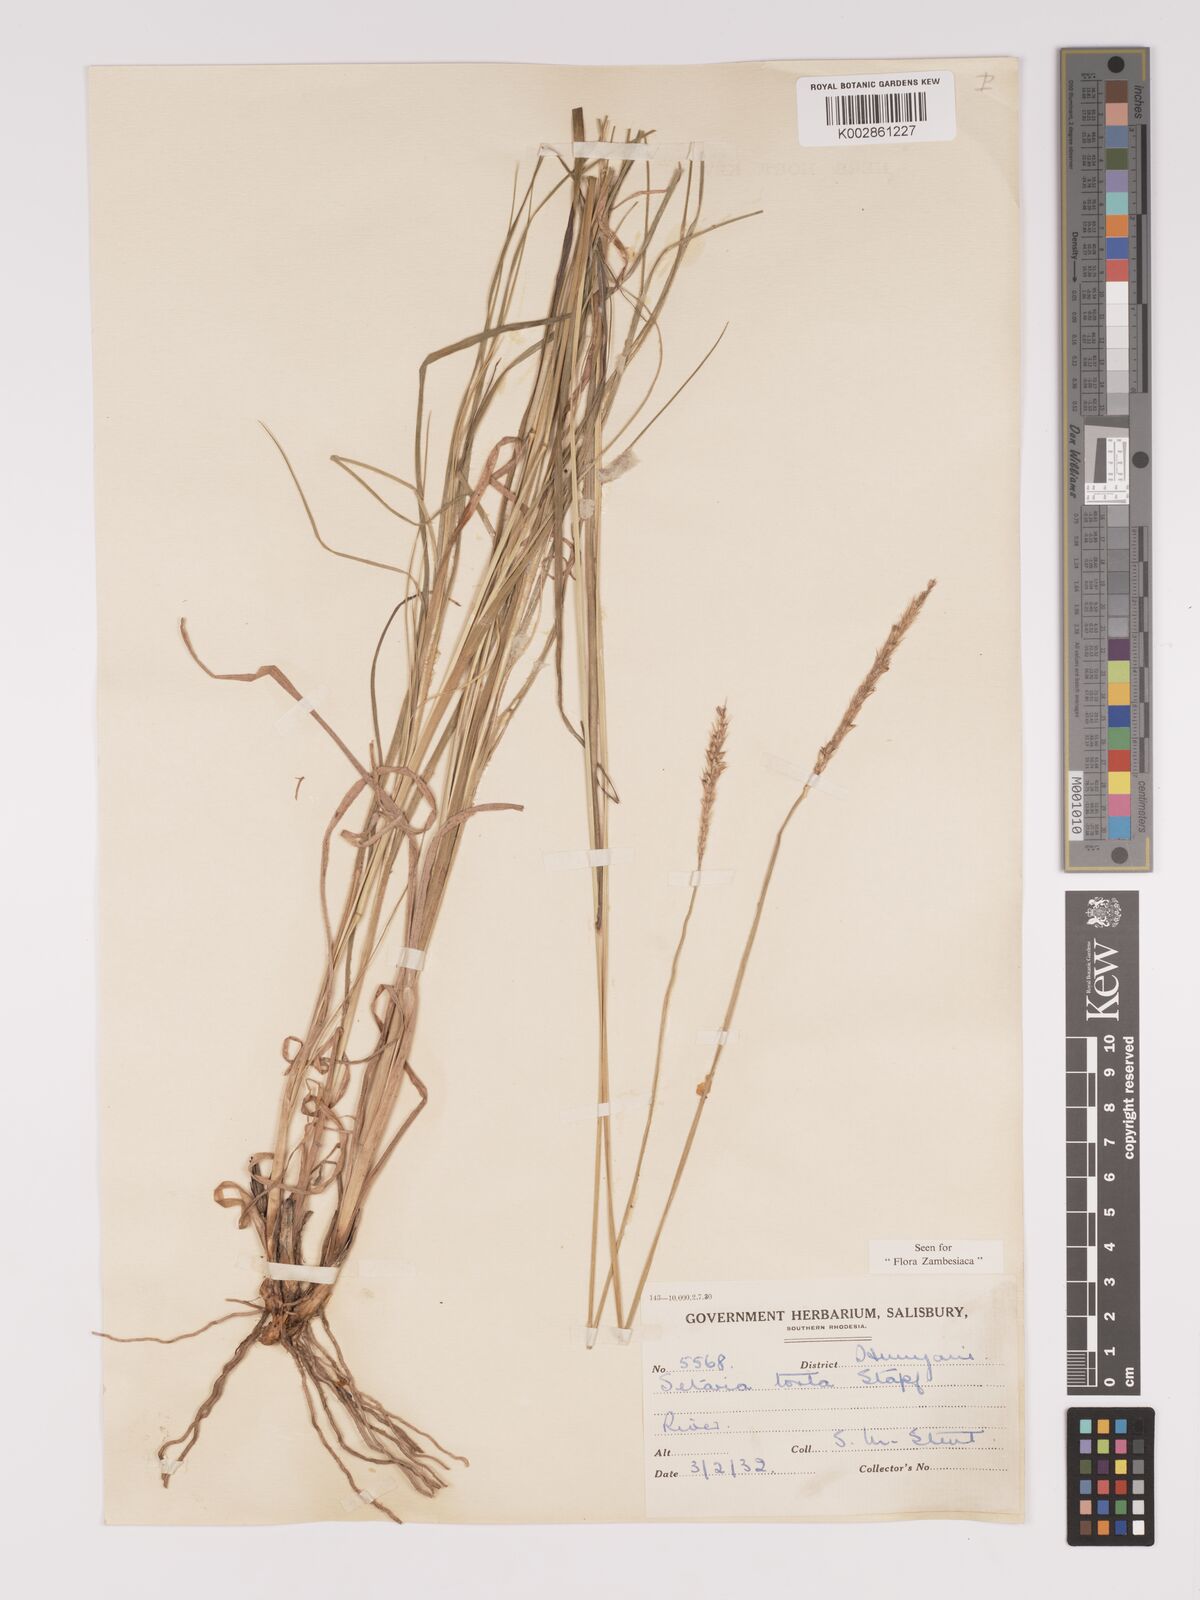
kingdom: Plantae
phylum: Tracheophyta
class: Liliopsida
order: Poales
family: Poaceae
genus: Setaria
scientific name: Setaria sphacelata
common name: African bristlegrass
